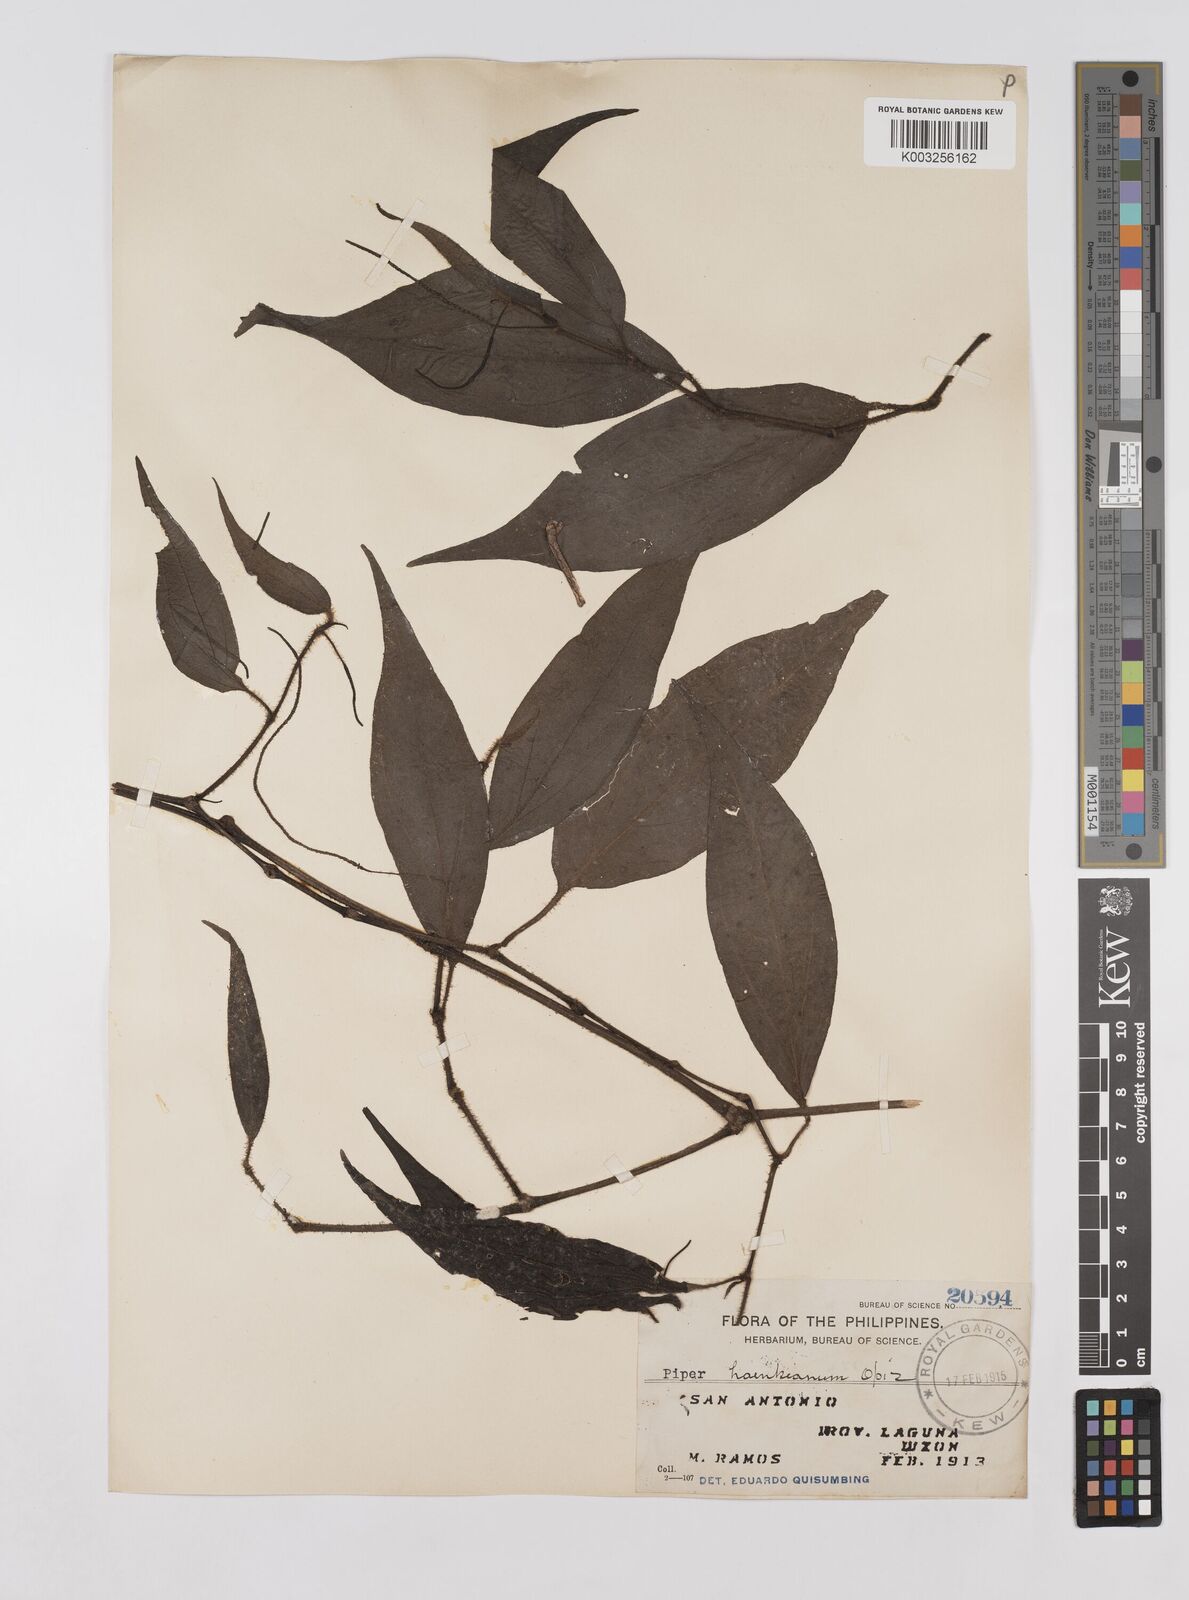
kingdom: Plantae
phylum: Tracheophyta
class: Magnoliopsida
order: Piperales
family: Piperaceae
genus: Piper
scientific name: Piper lanatum
